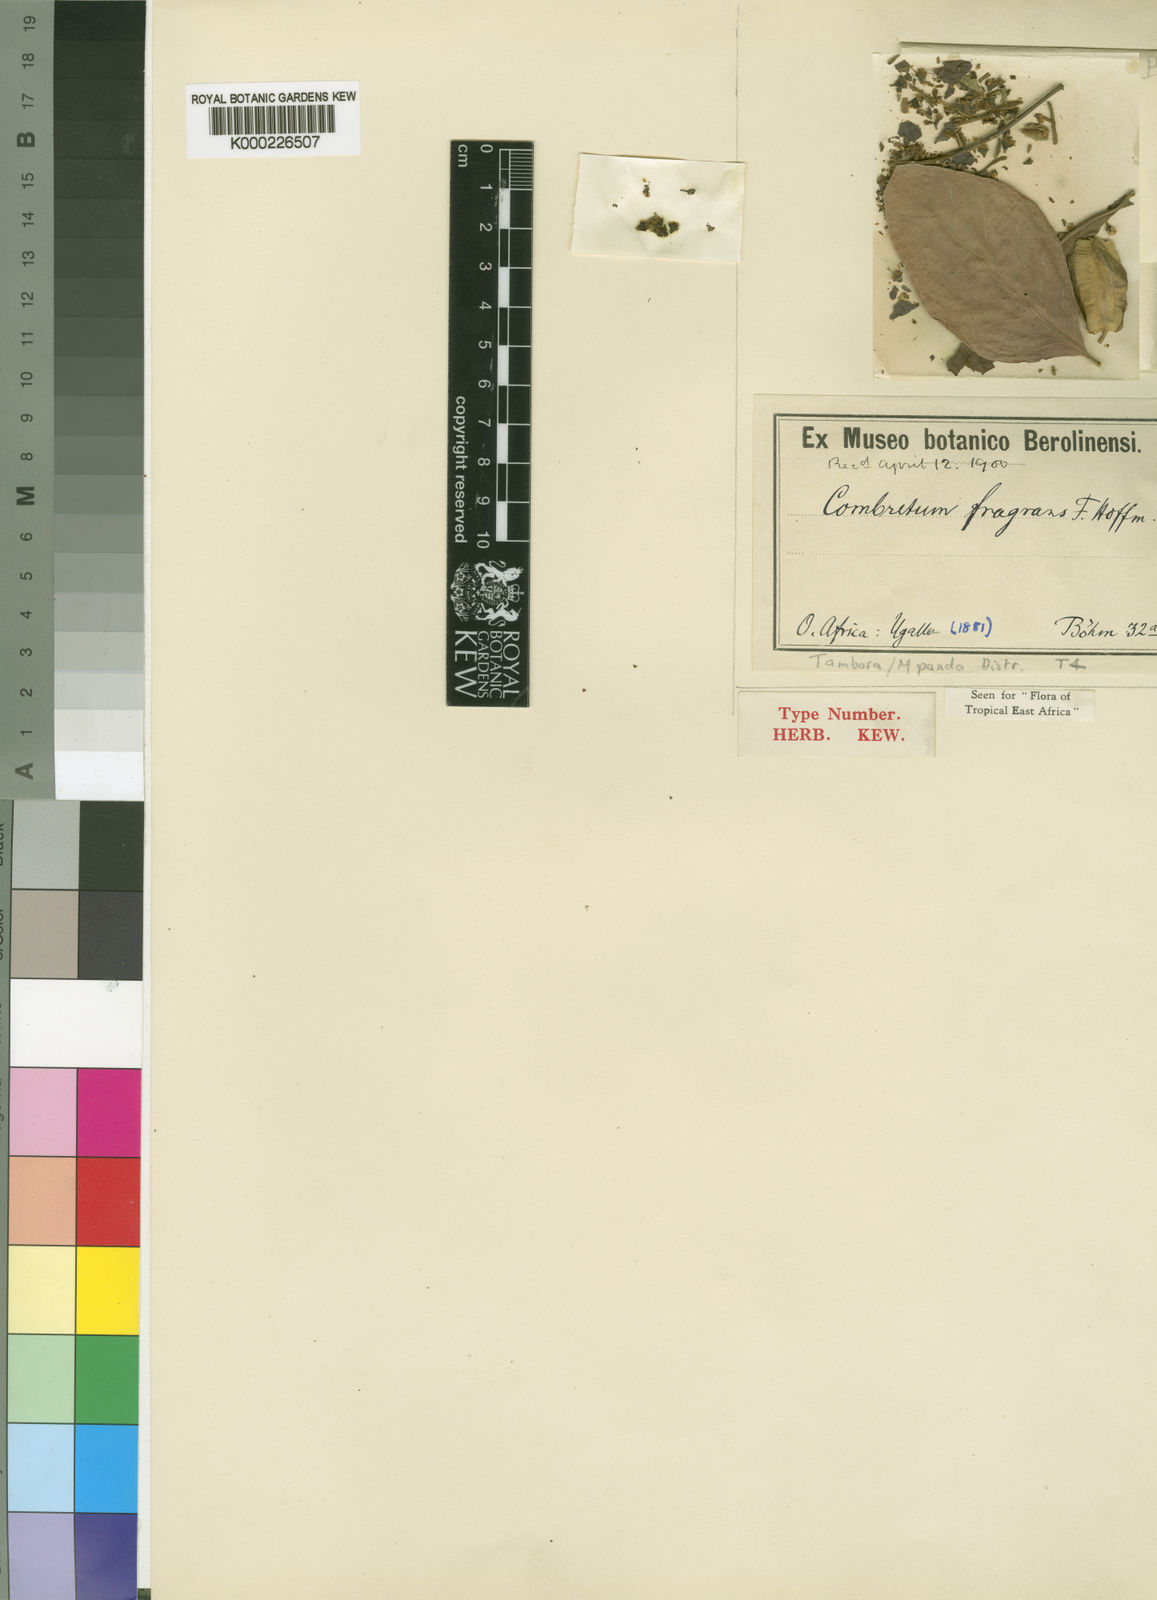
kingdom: Plantae
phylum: Tracheophyta
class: Magnoliopsida
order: Myrtales
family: Combretaceae
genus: Combretum
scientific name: Combretum adenogonium
